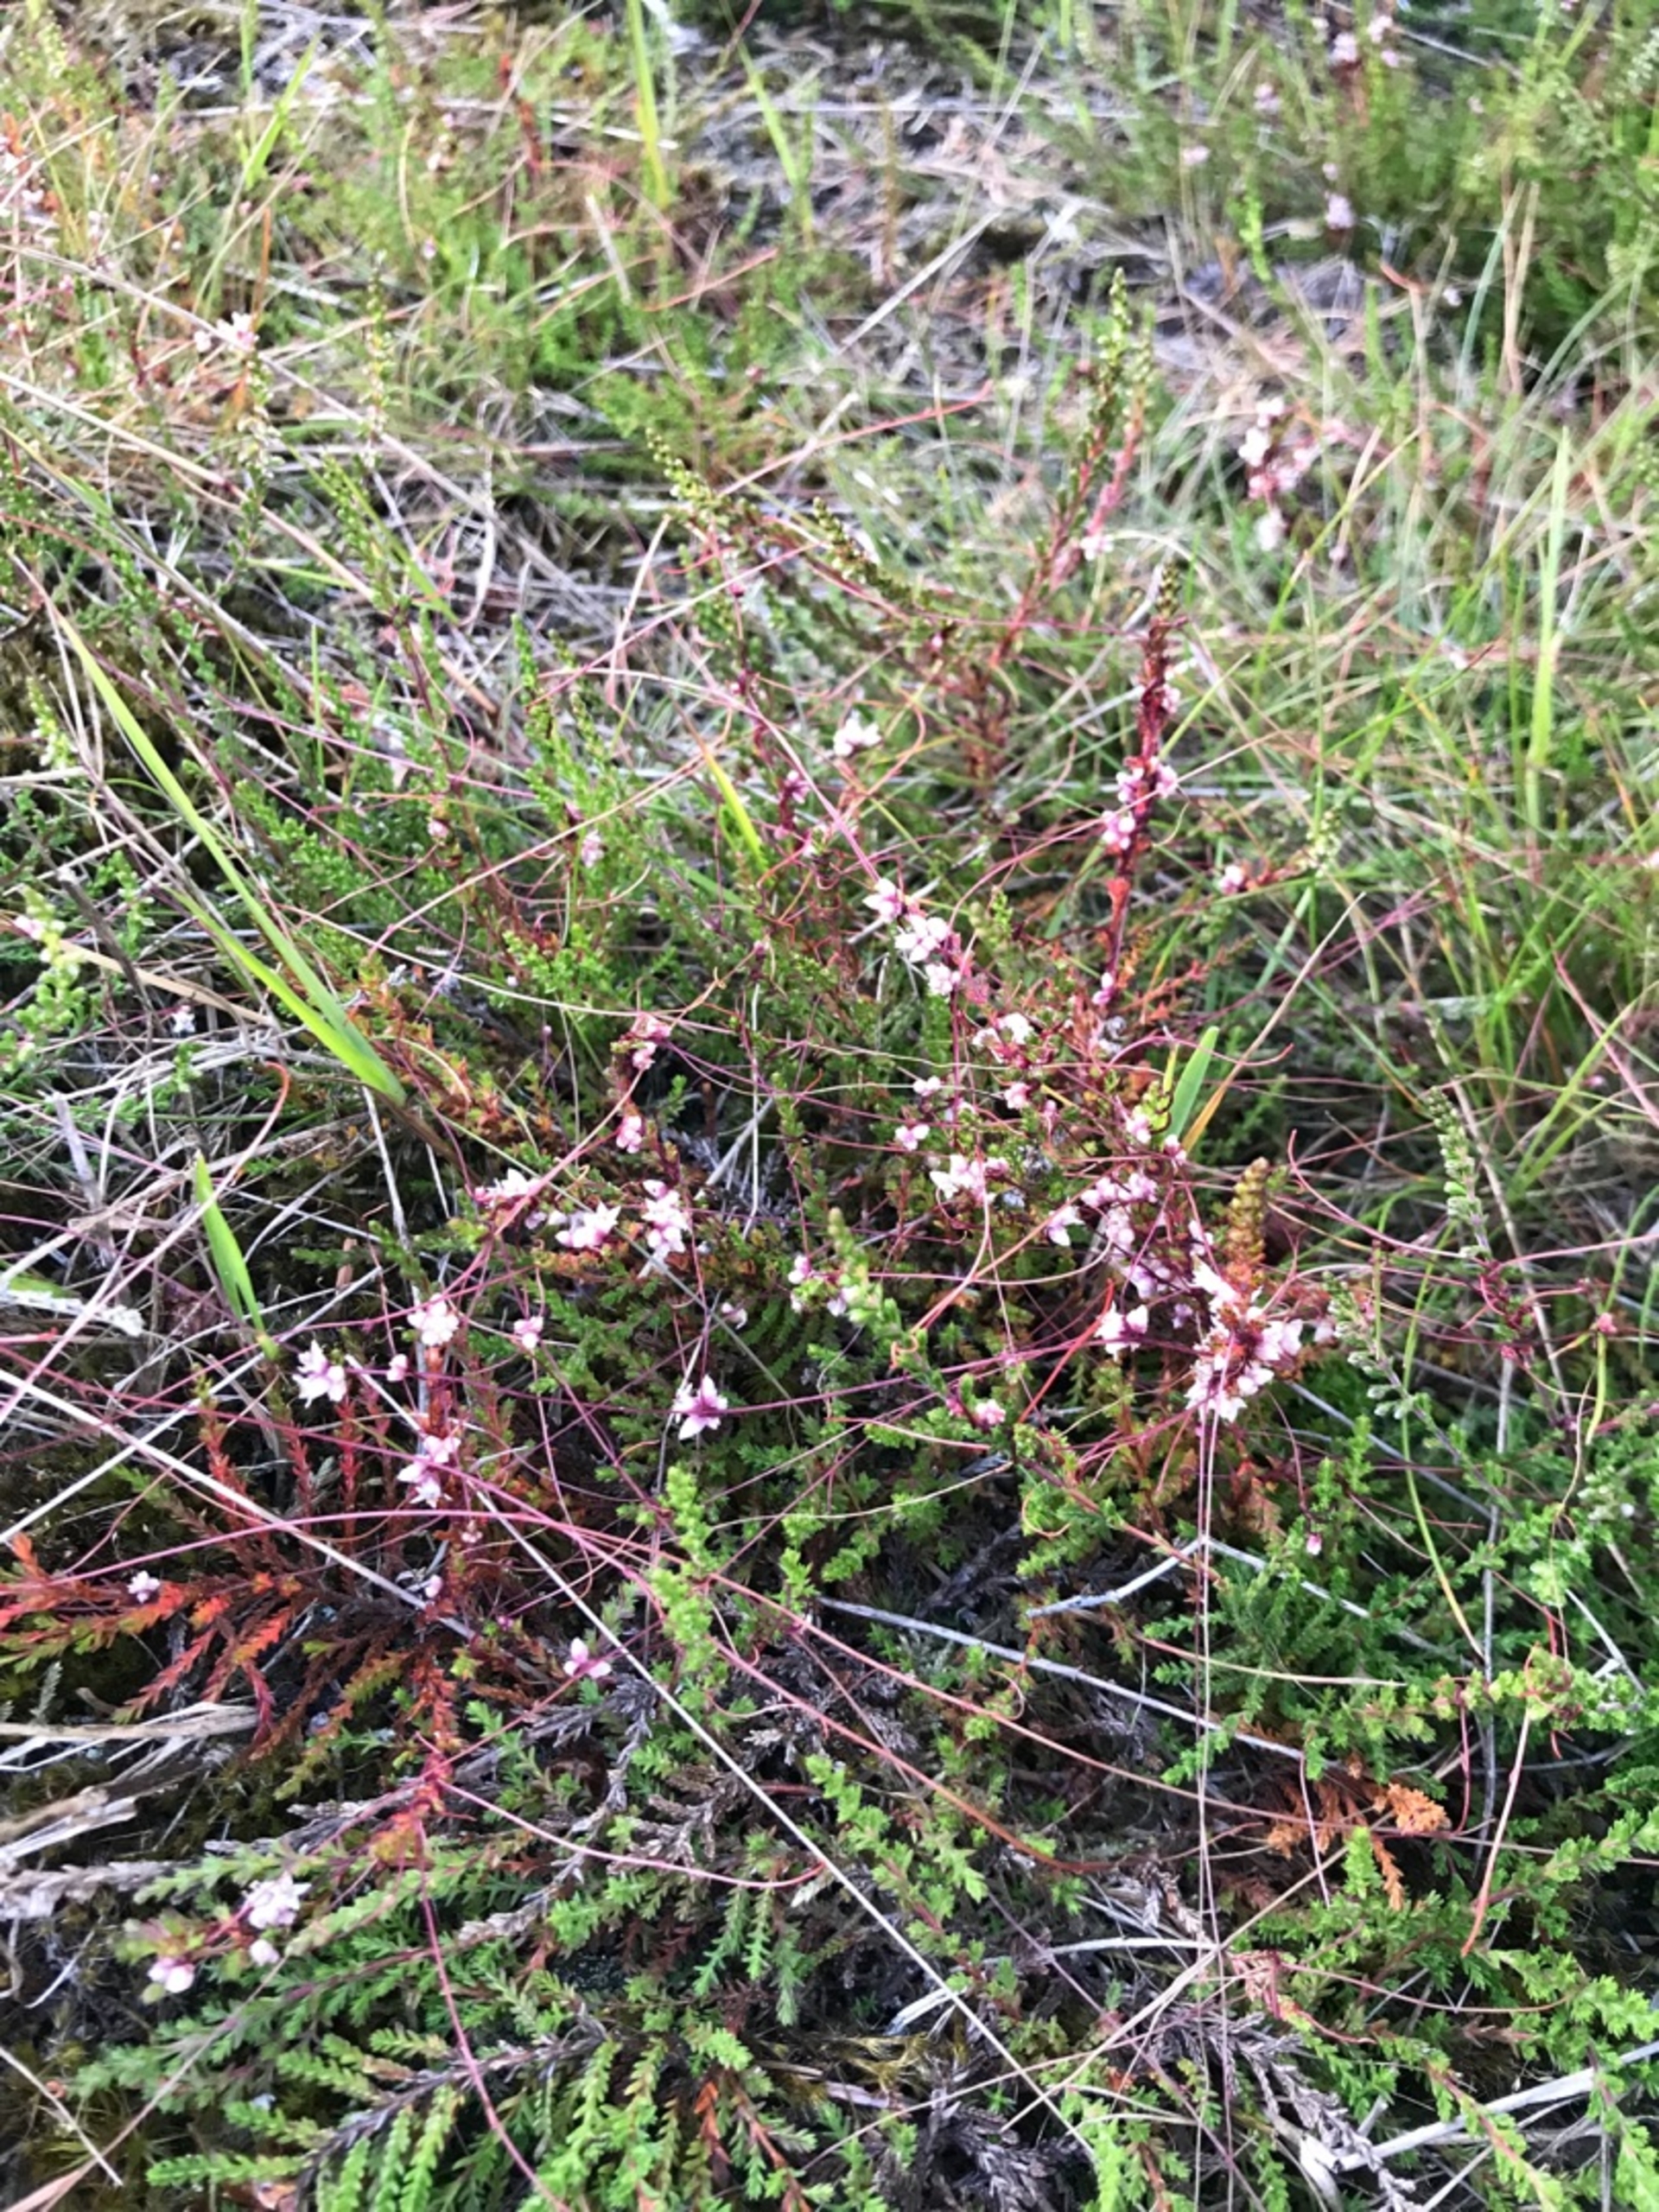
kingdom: Plantae
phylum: Tracheophyta
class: Magnoliopsida
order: Solanales
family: Convolvulaceae
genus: Cuscuta
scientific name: Cuscuta epithymum
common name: Lyng-silke
